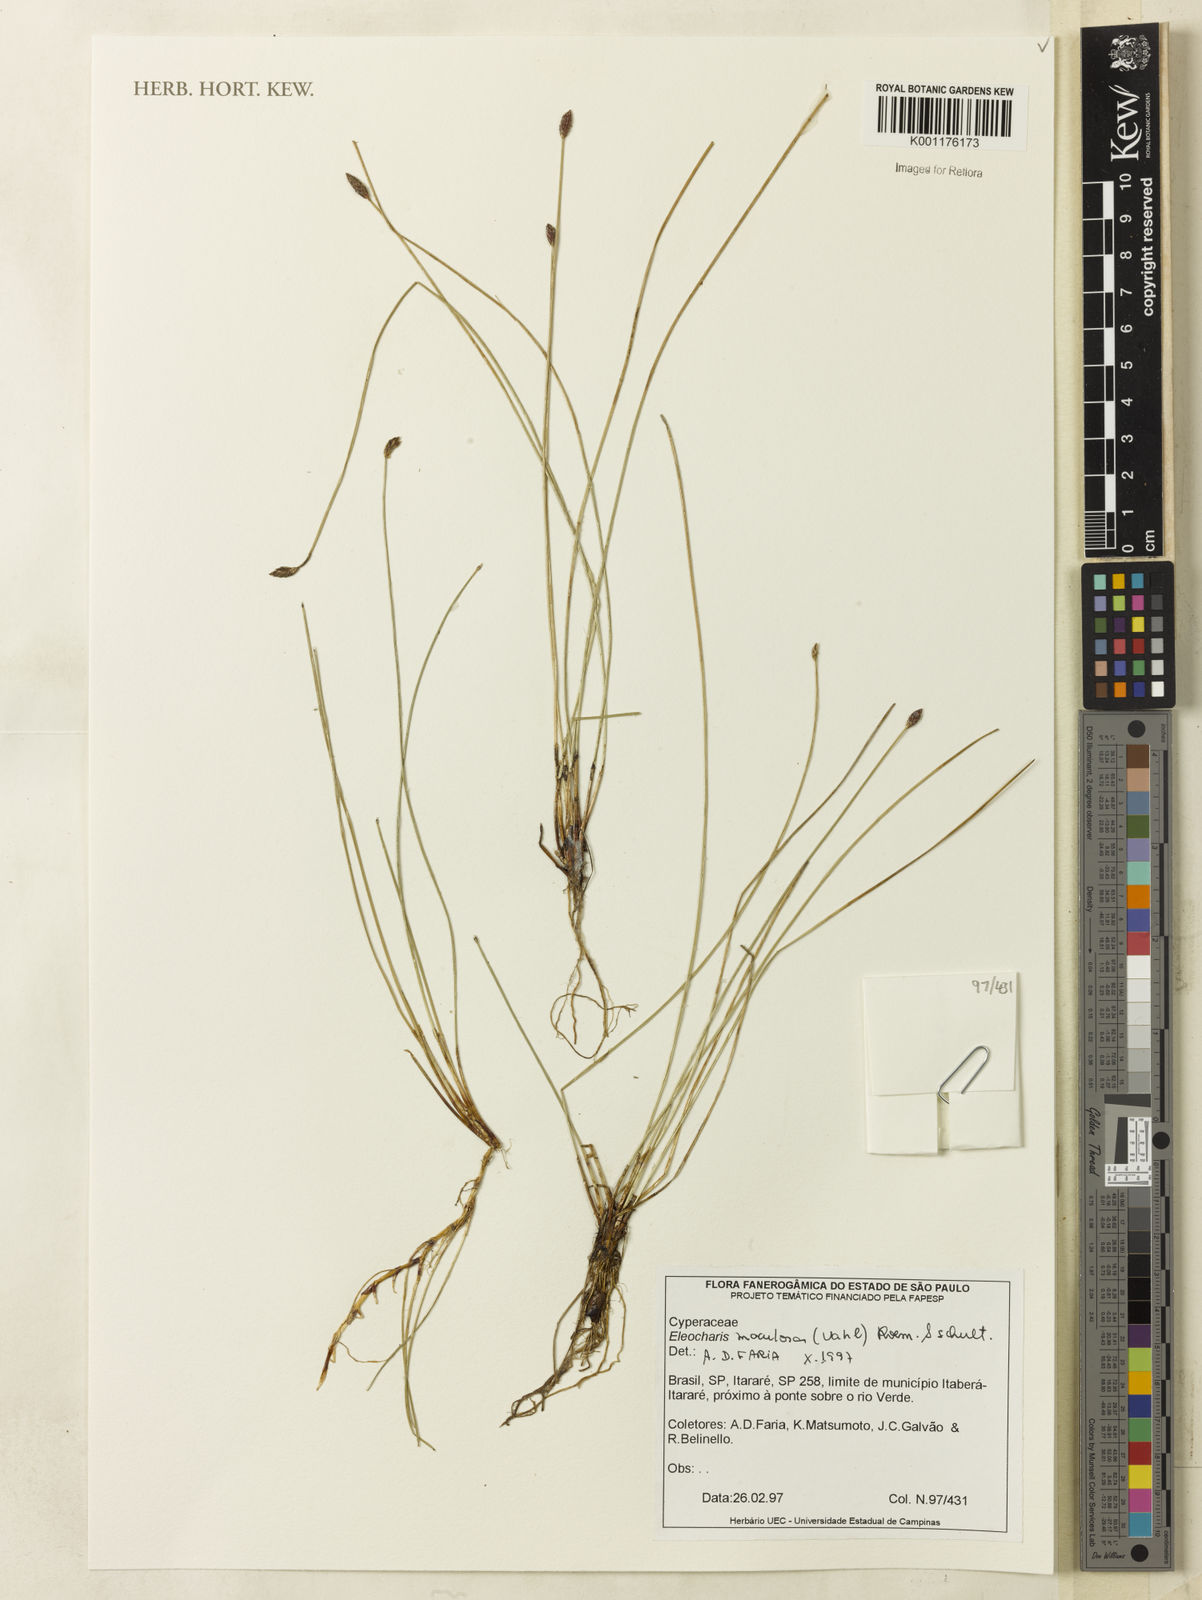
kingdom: Plantae
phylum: Tracheophyta
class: Liliopsida
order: Poales
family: Cyperaceae
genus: Eleocharis
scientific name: Eleocharis maculosa
